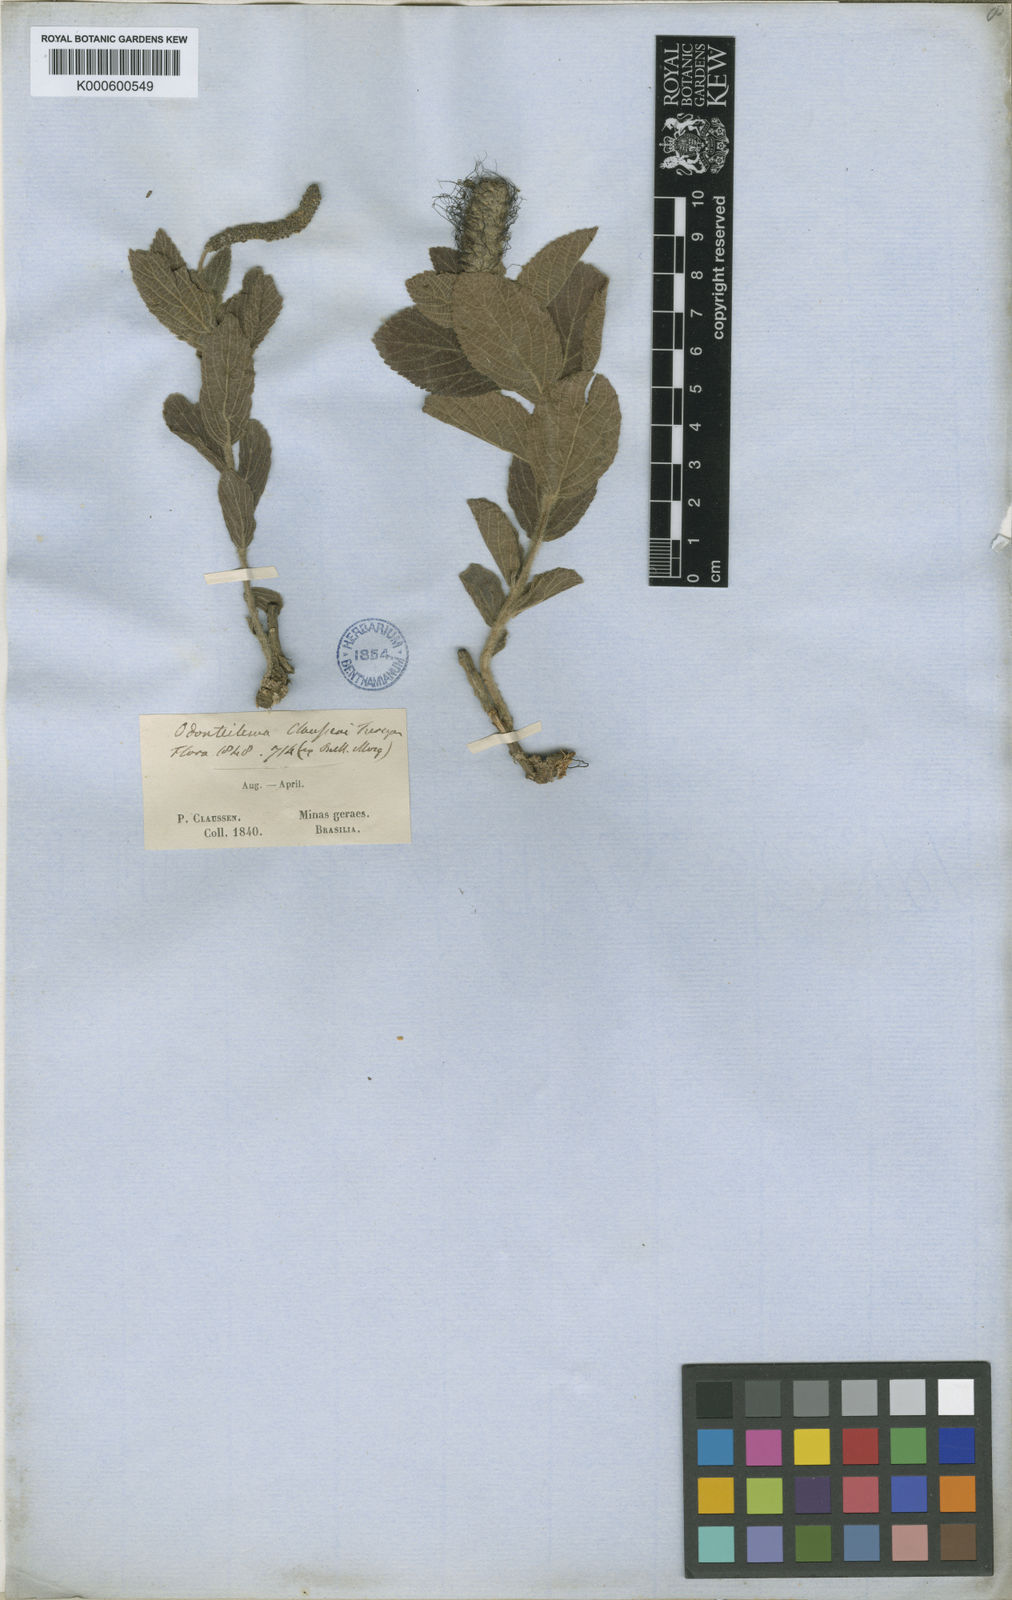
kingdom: Plantae
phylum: Tracheophyta
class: Magnoliopsida
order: Malpighiales
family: Euphorbiaceae
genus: Acalypha
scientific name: Acalypha
